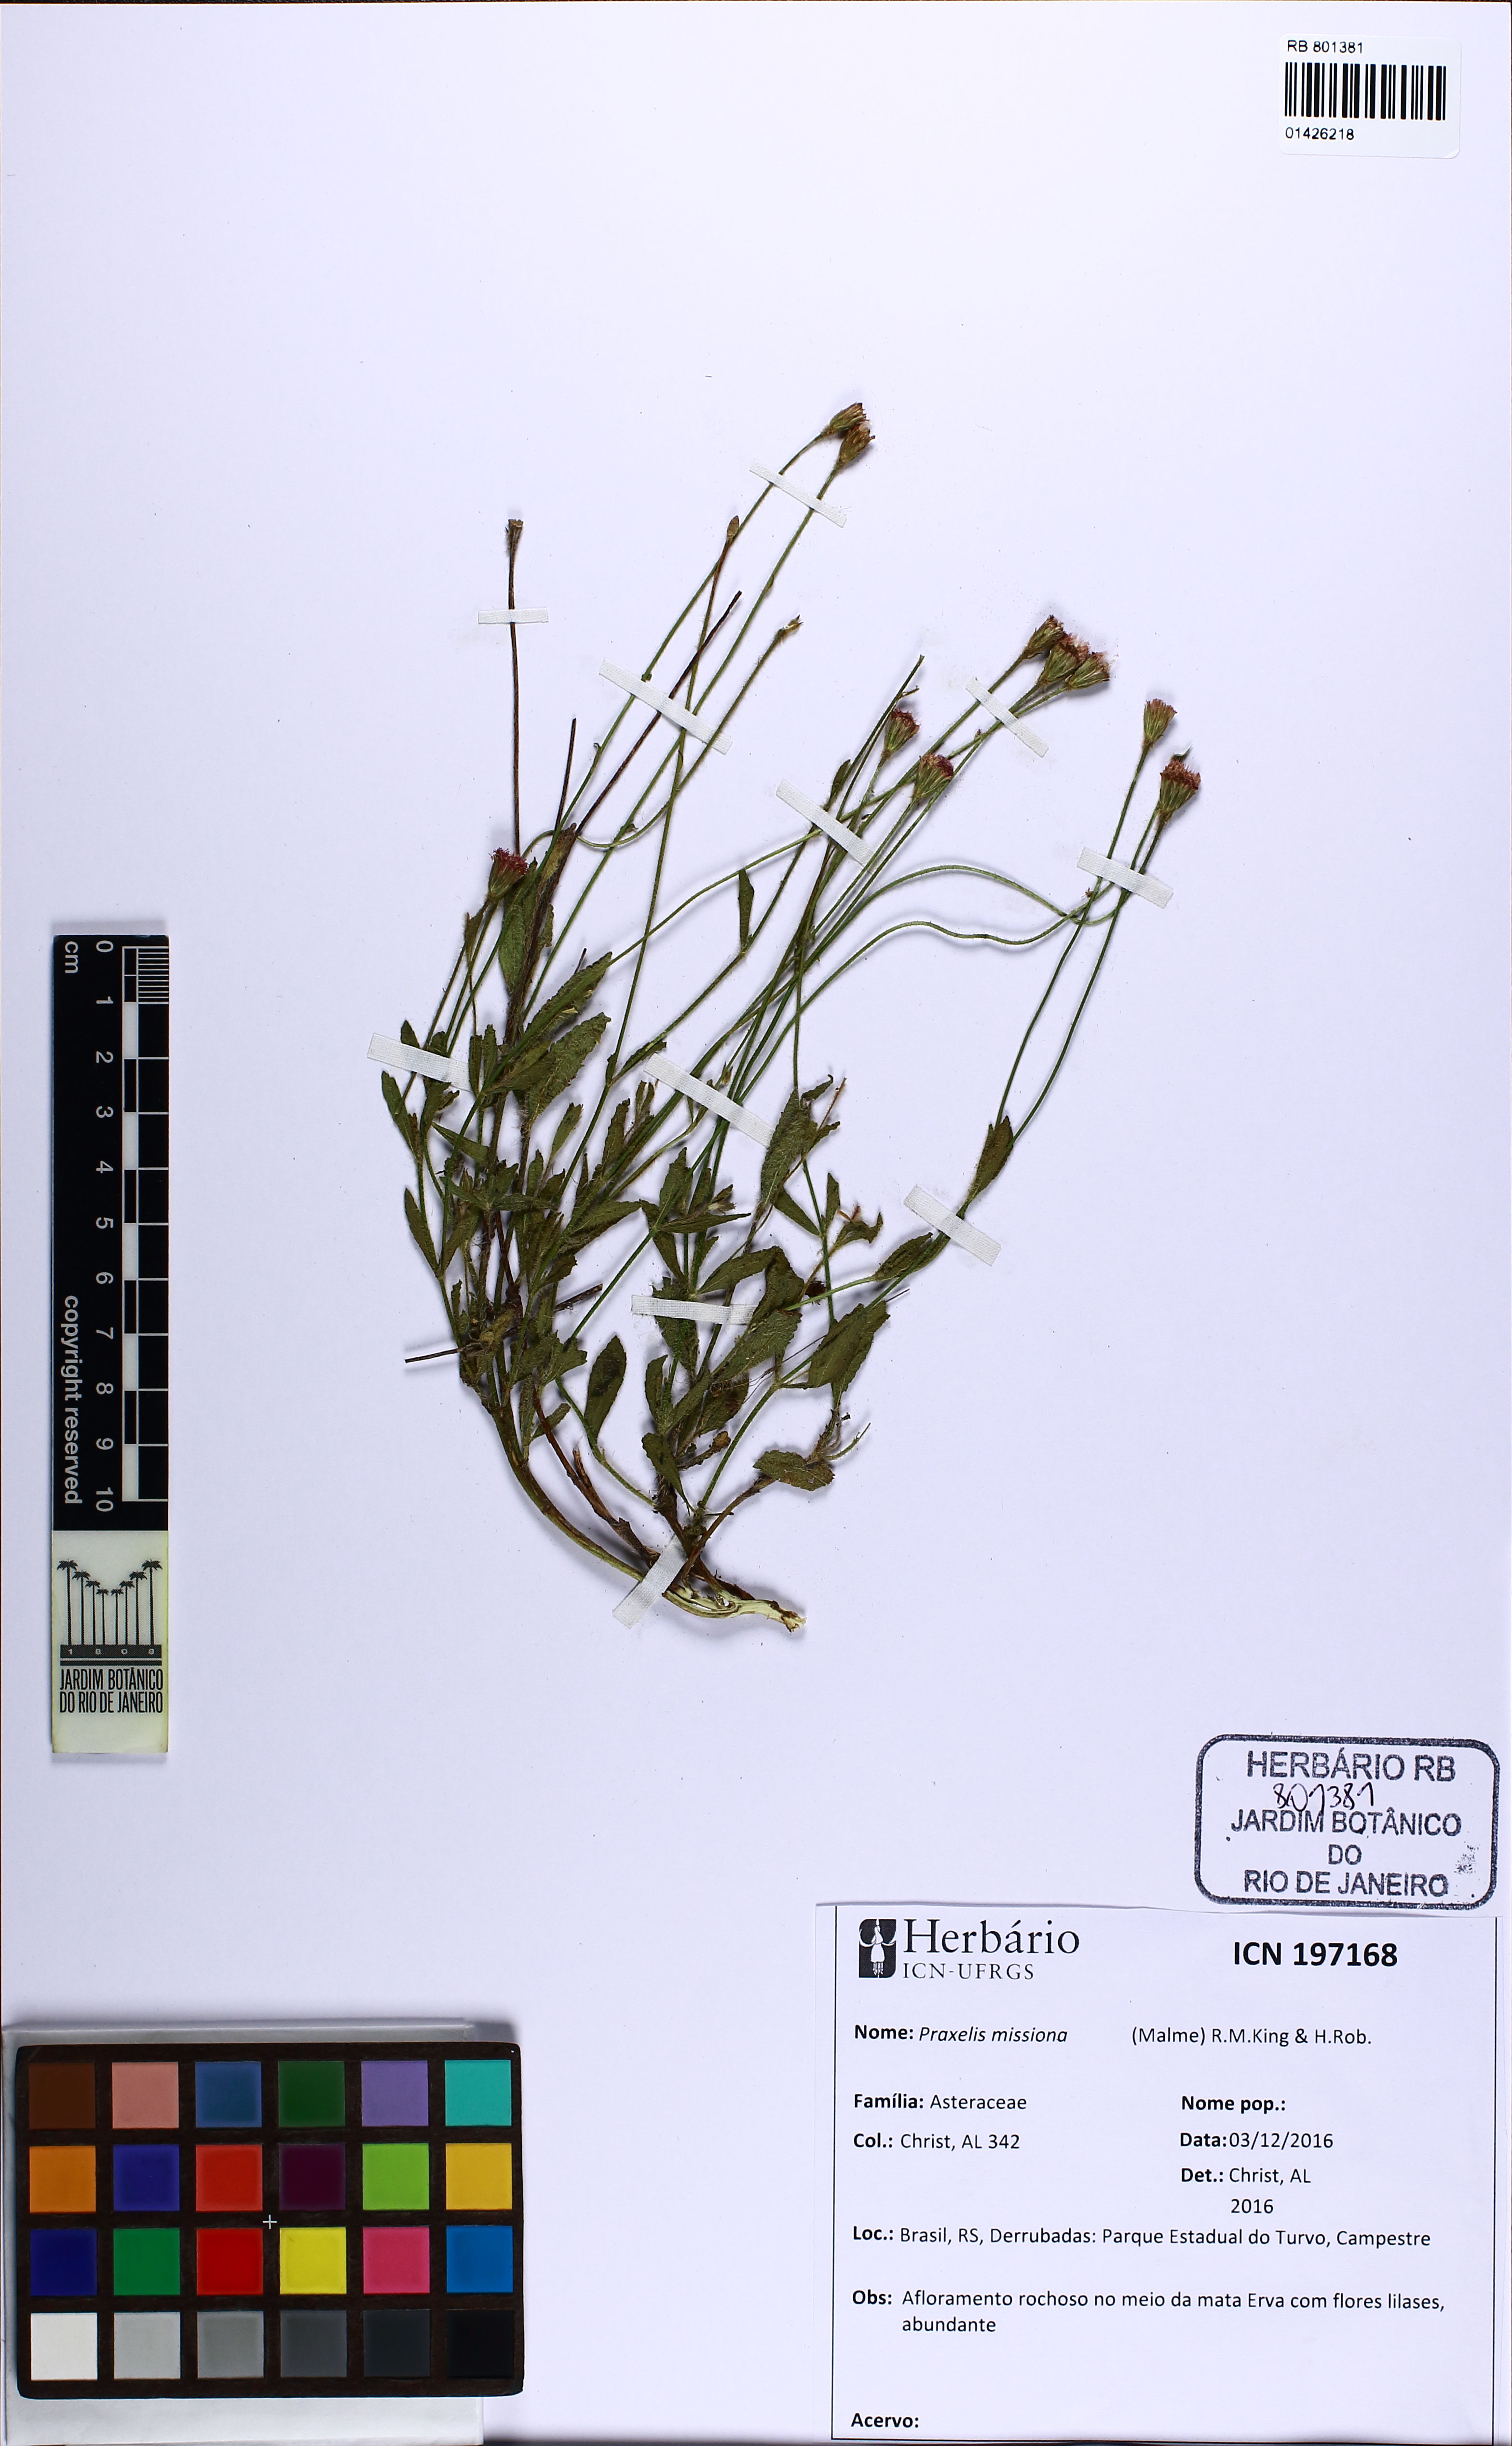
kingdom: Plantae
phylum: Tracheophyta
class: Magnoliopsida
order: Asterales
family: Asteraceae
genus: Praxelis
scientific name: Praxelis missiona
